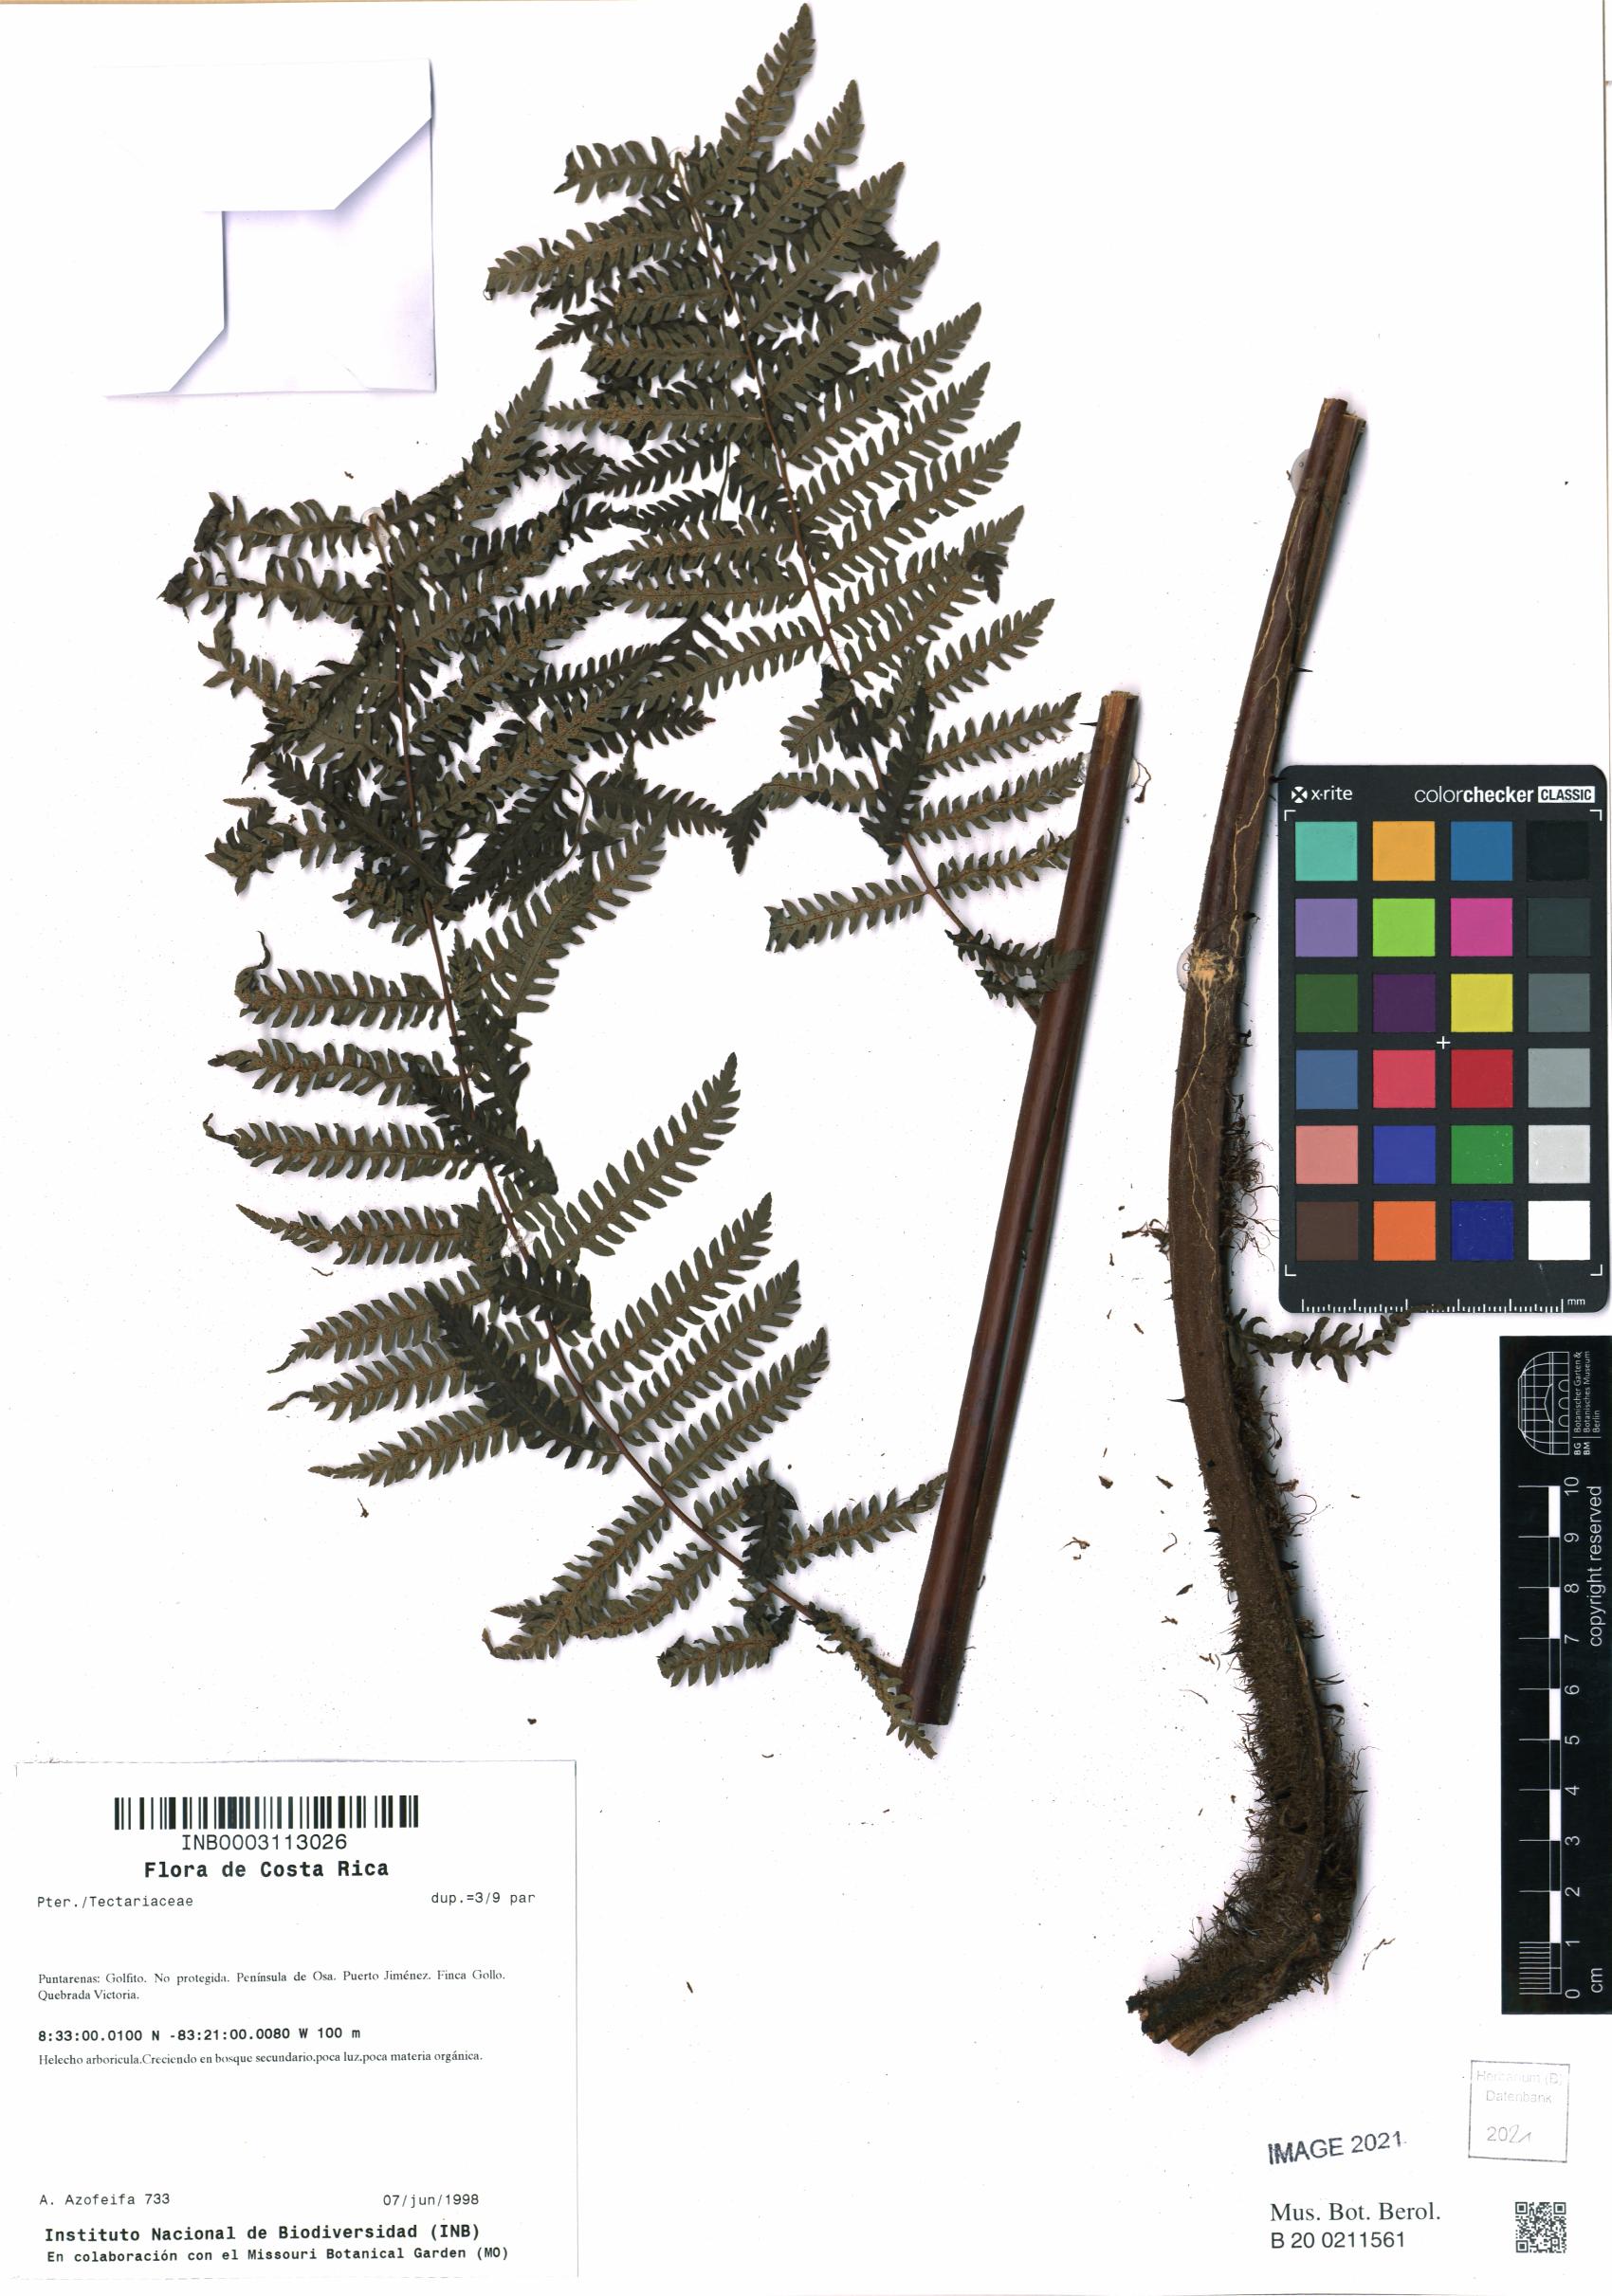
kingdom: Plantae
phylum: Tracheophyta
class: Polypodiopsida
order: Polypodiales
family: Tectariaceae
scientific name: Tectariaceae
